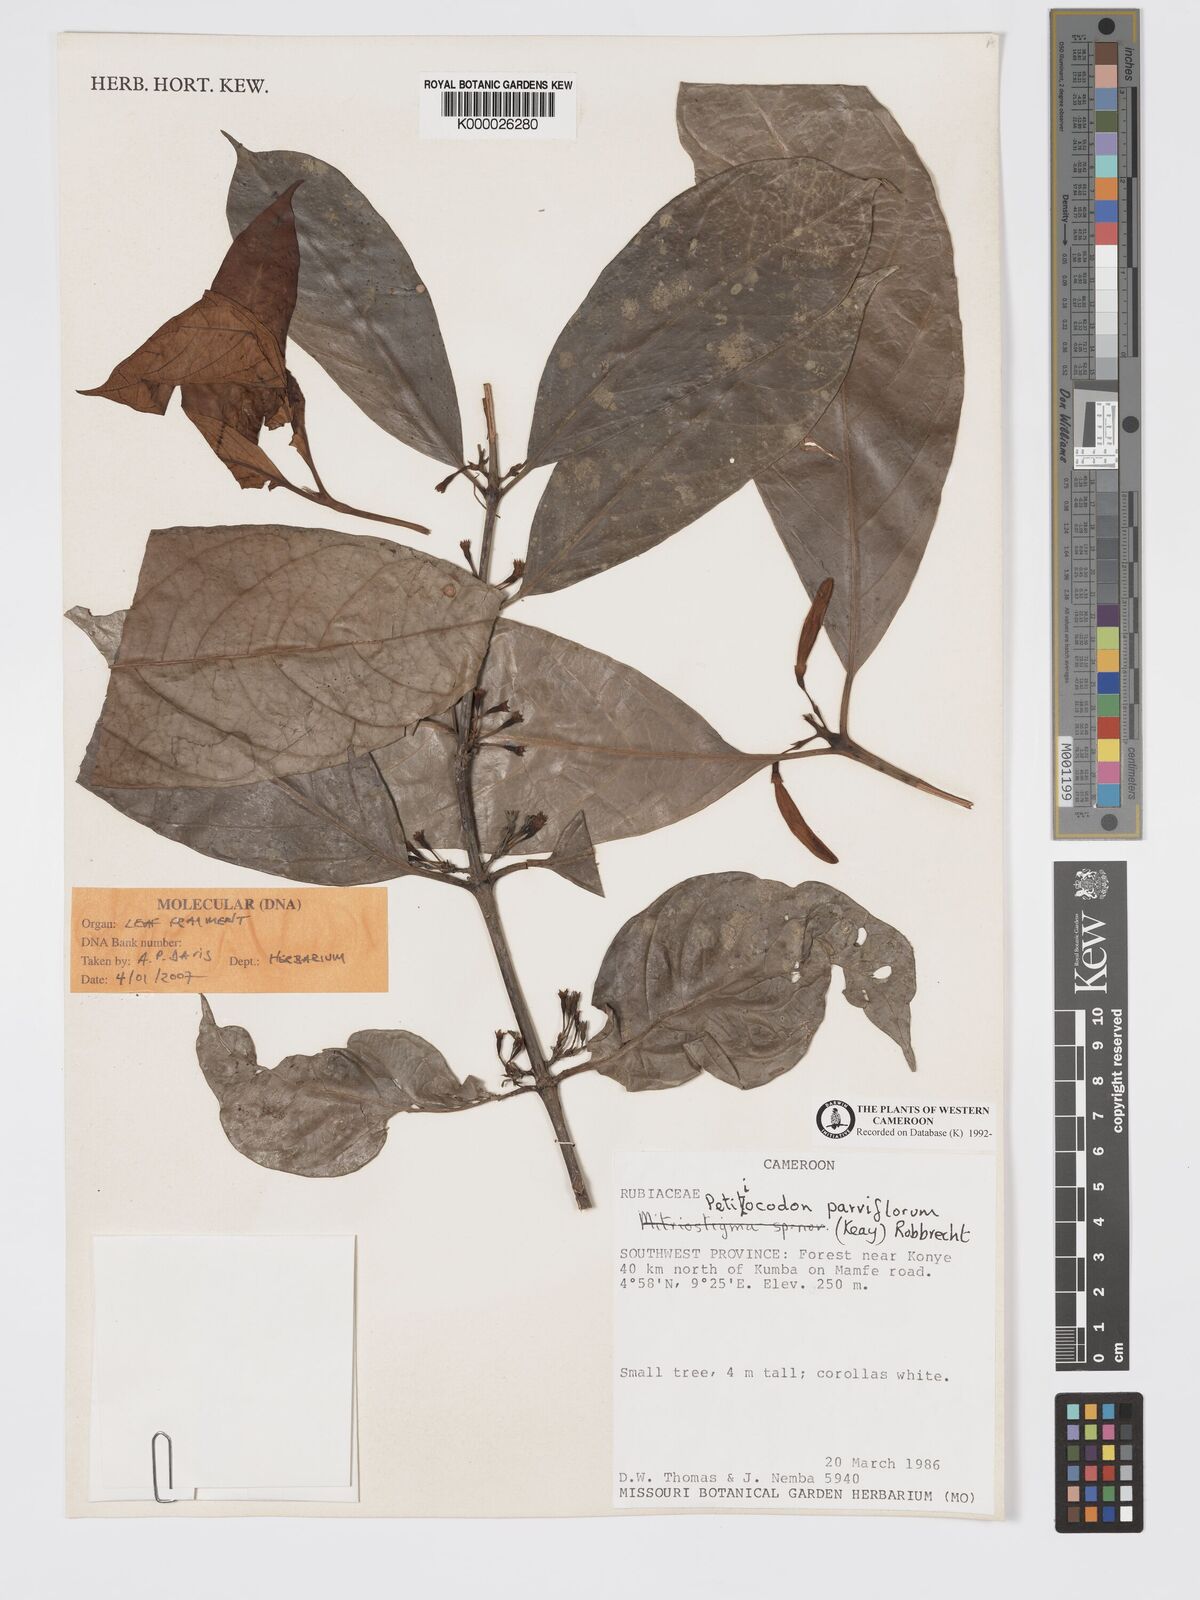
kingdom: Plantae
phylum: Tracheophyta
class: Magnoliopsida
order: Gentianales
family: Rubiaceae
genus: Petitiocodon
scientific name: Petitiocodon parviflorum
